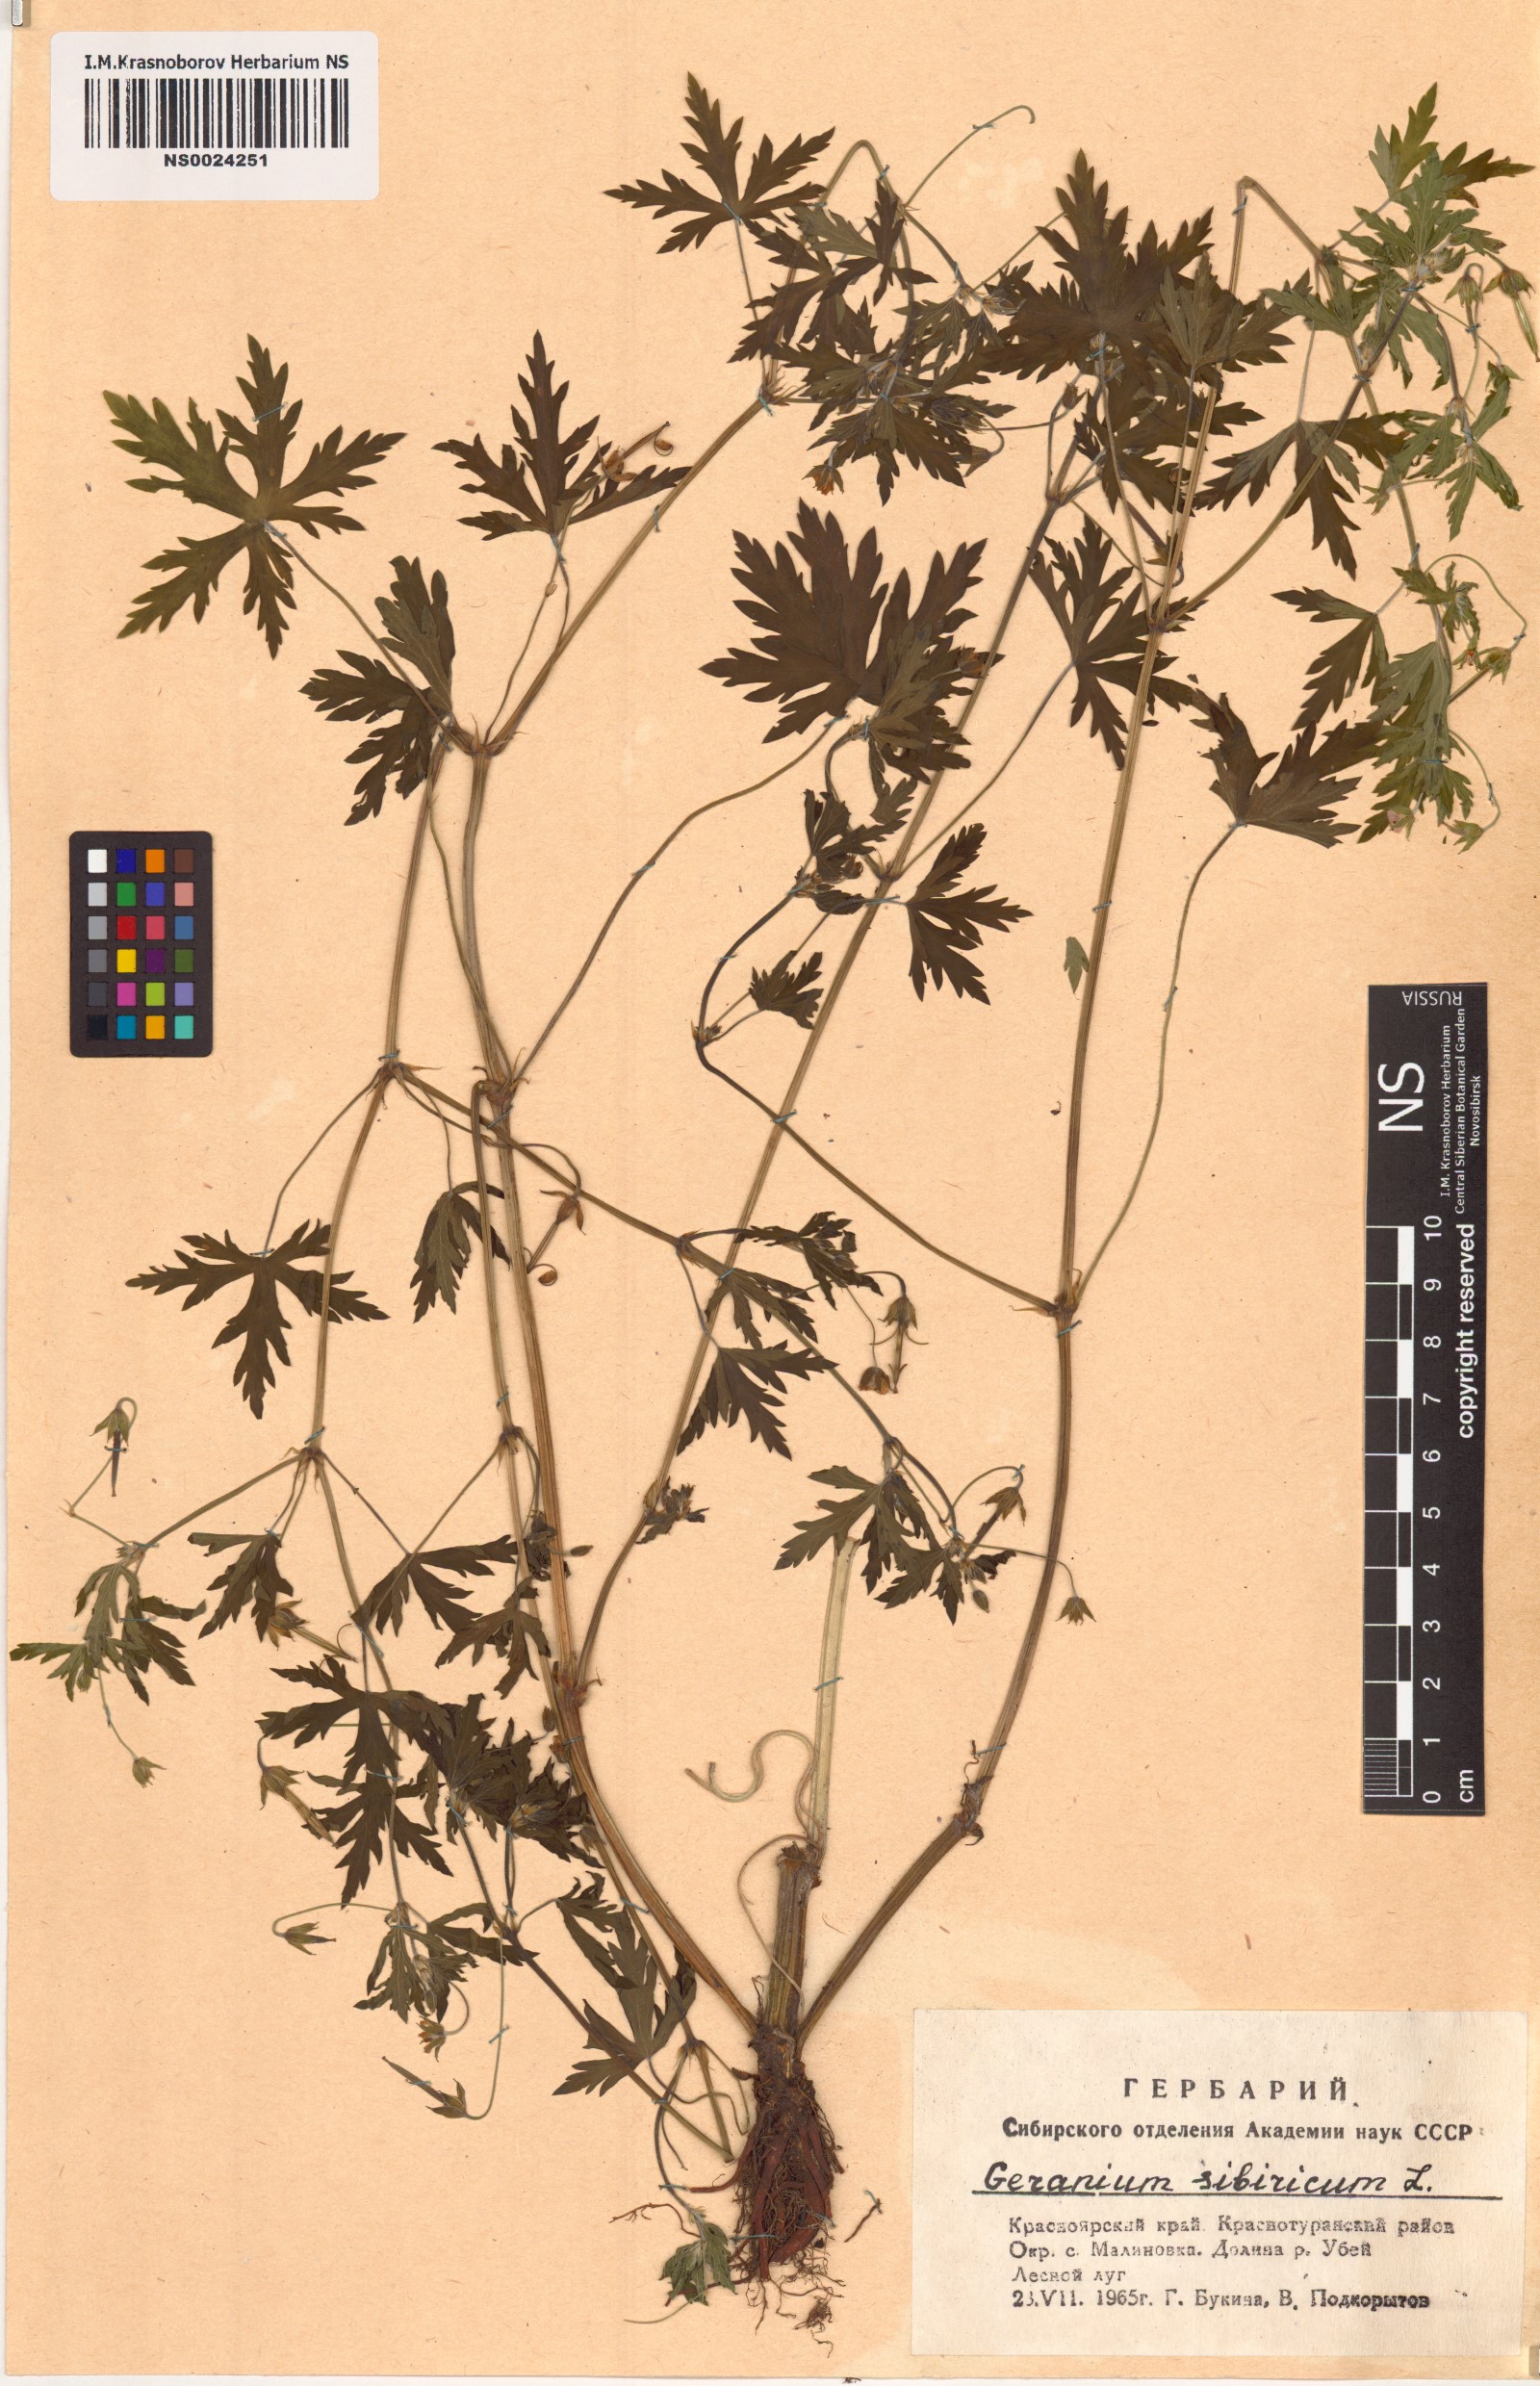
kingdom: Plantae
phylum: Tracheophyta
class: Magnoliopsida
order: Geraniales
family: Geraniaceae
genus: Geranium
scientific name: Geranium sibiricum
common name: Siberian crane's-bill
